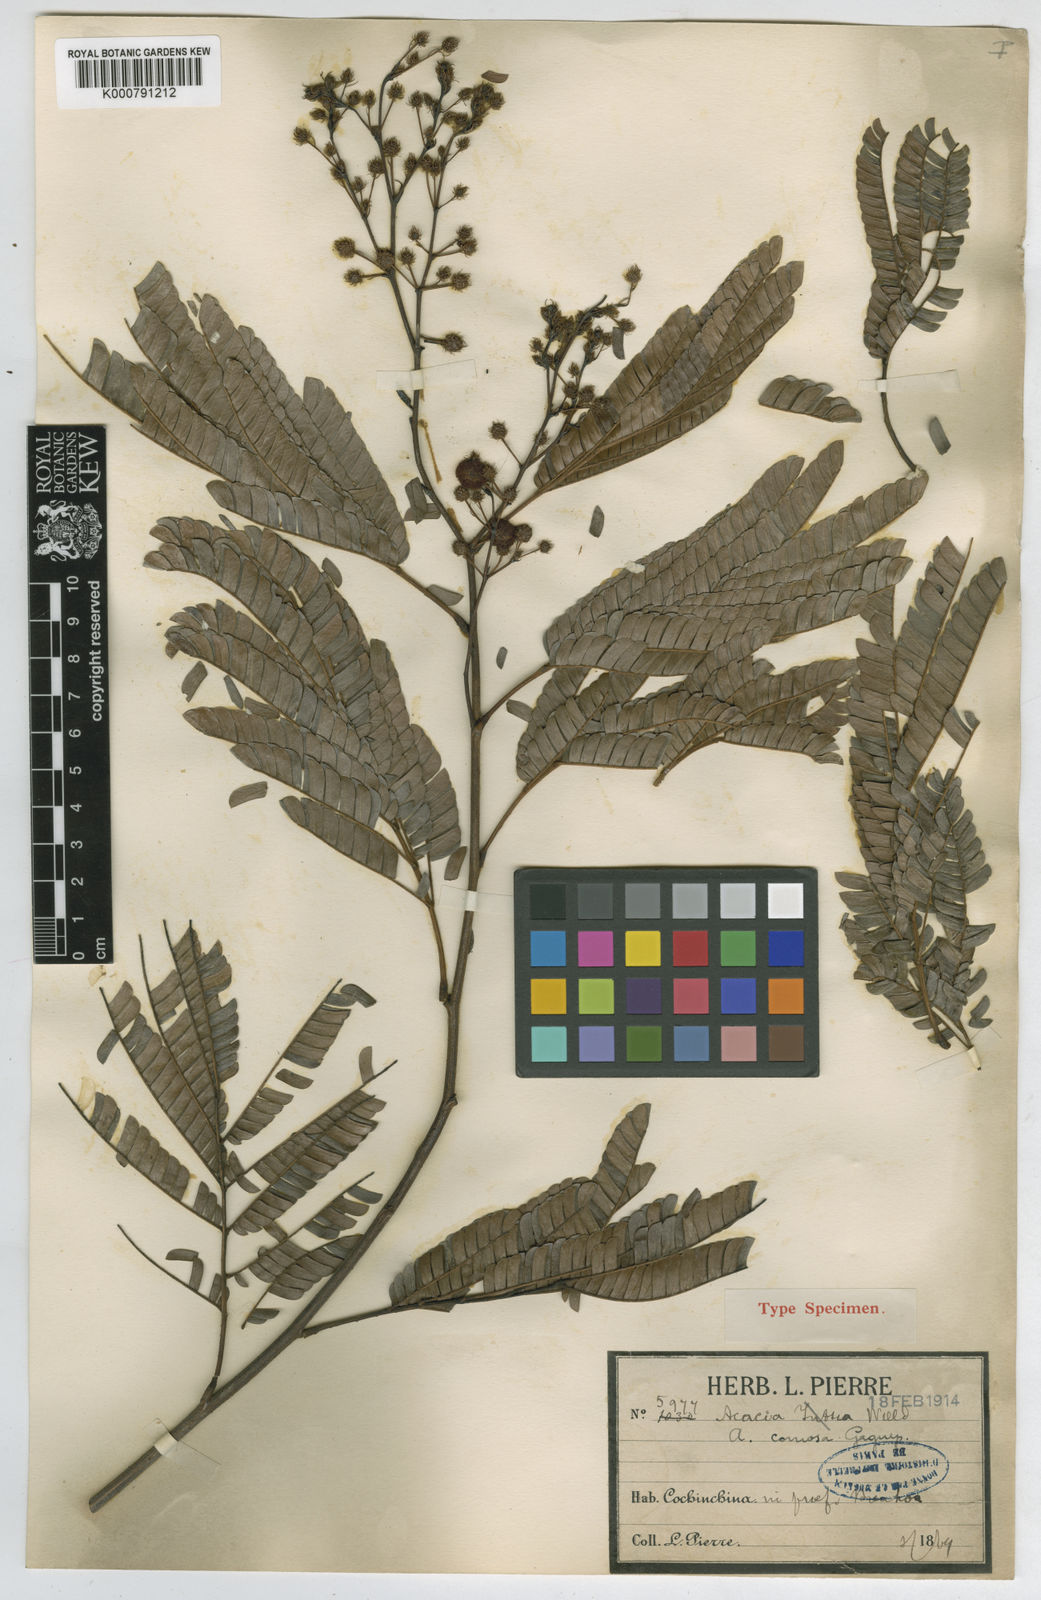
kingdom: Plantae
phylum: Tracheophyta
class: Magnoliopsida
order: Fabales
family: Fabaceae
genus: Senegalia
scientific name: Senegalia comosa
